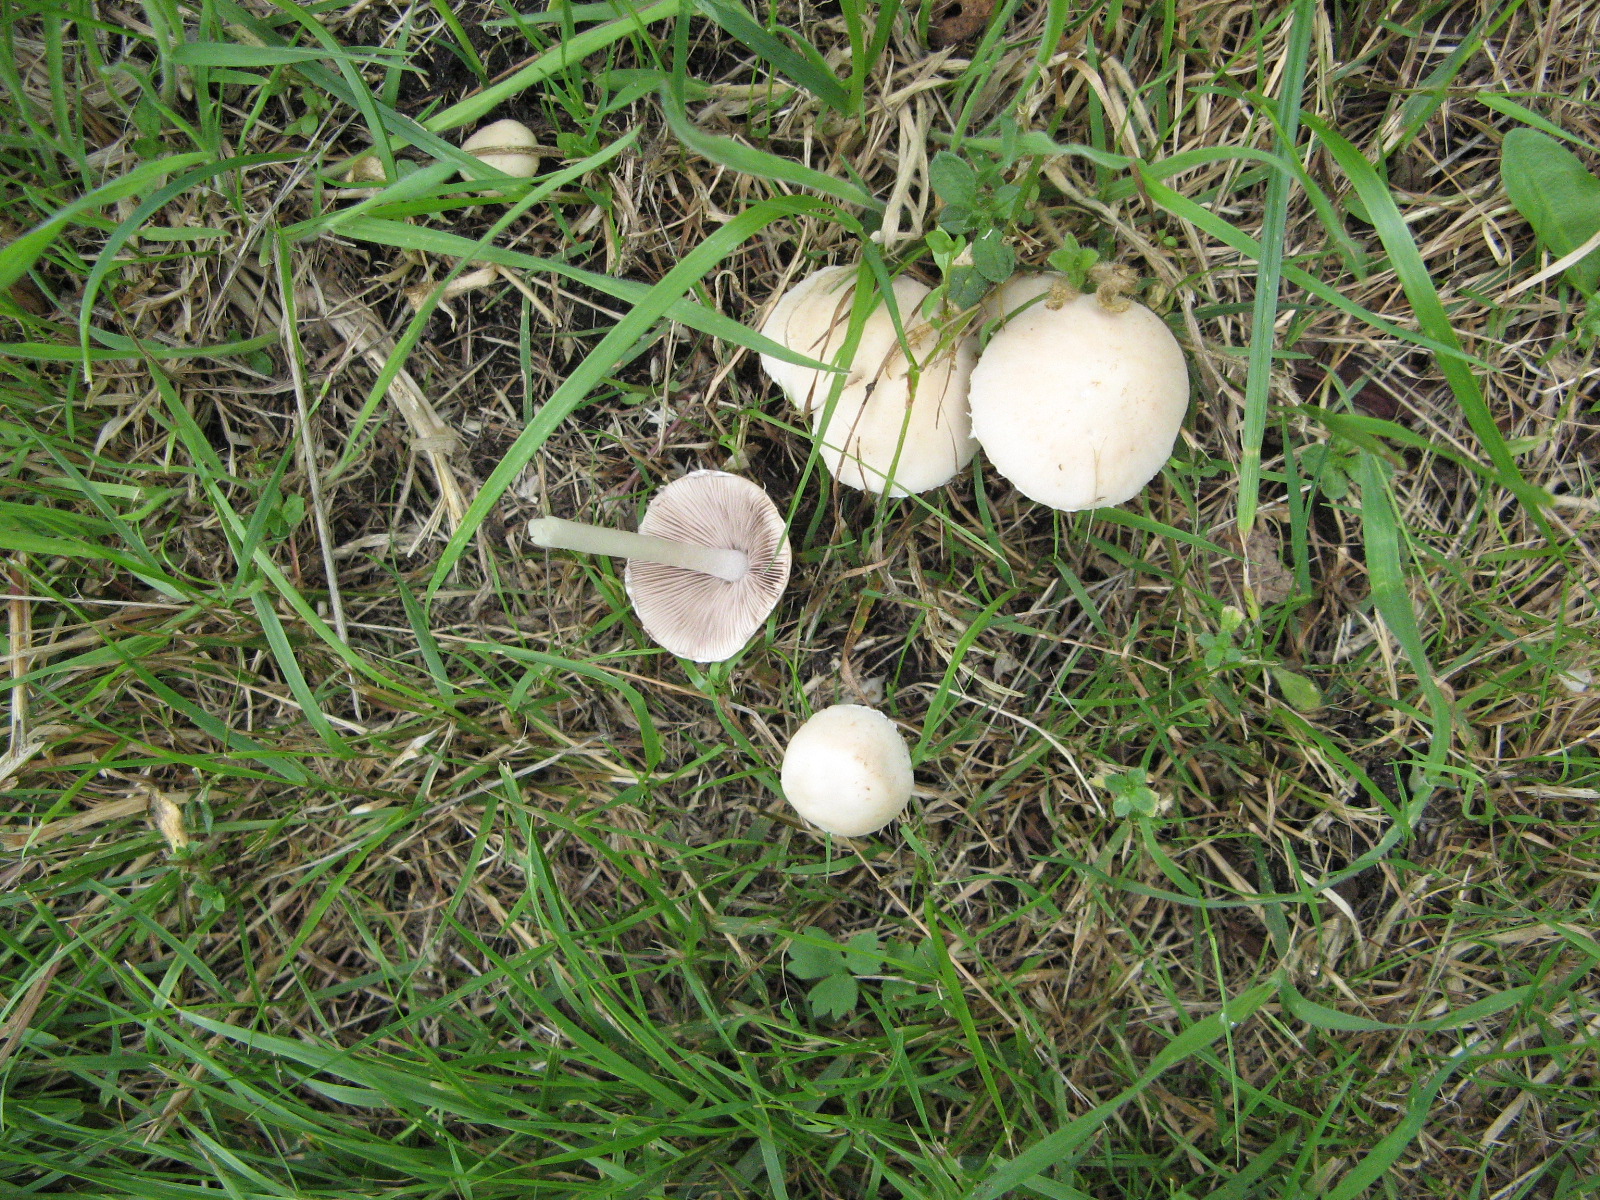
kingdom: Fungi
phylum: Basidiomycota
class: Agaricomycetes
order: Agaricales
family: Psathyrellaceae
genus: Candolleomyces
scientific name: Candolleomyces candolleanus
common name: Candolles mørkhat
